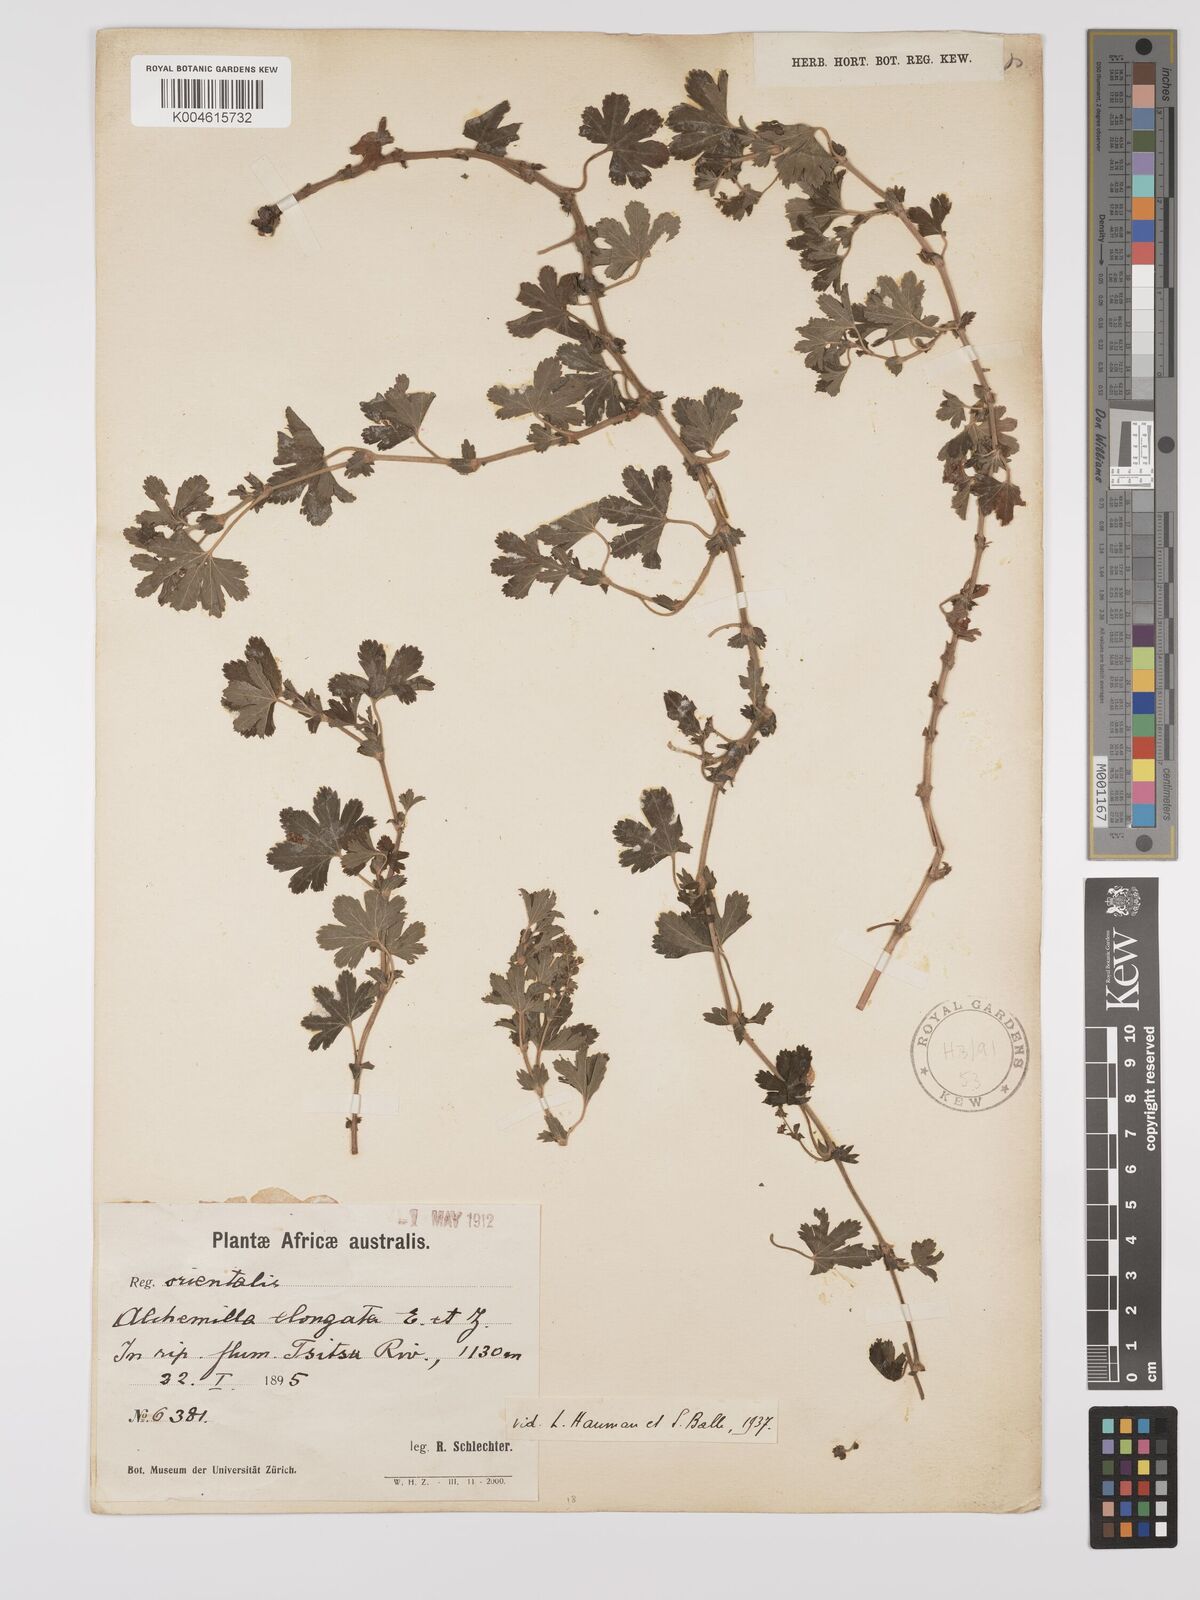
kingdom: Plantae
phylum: Tracheophyta
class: Magnoliopsida
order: Rosales
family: Rosaceae
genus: Alchemilla
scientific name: Alchemilla elongata
